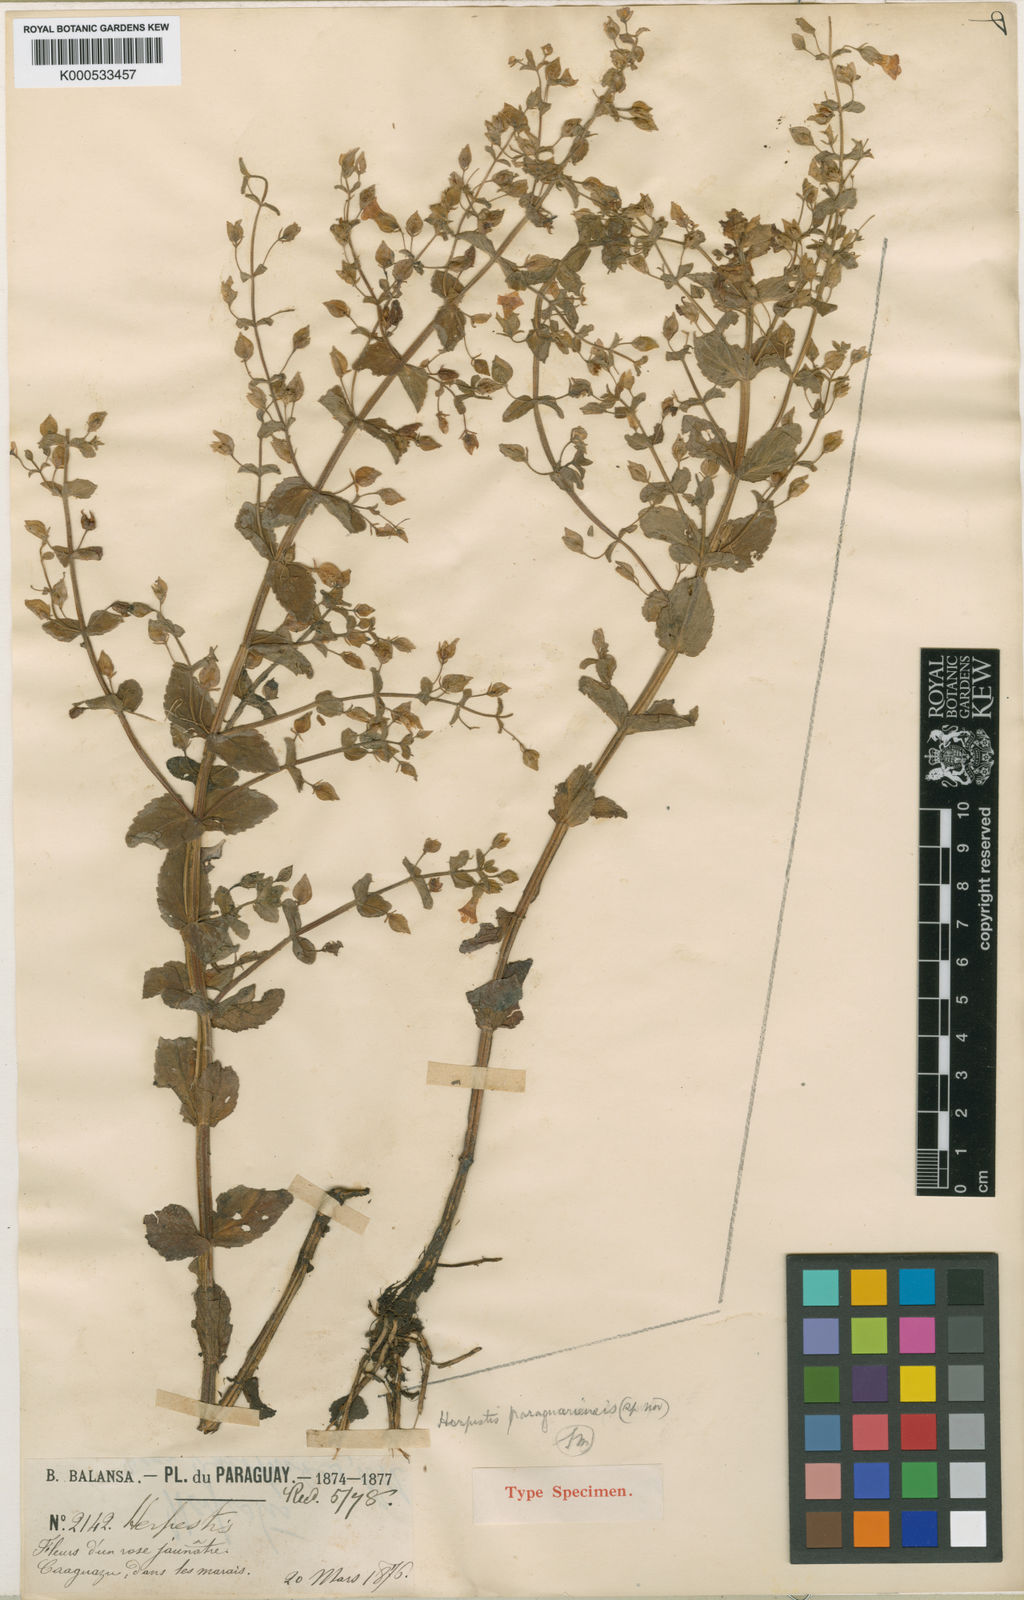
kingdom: Plantae
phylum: Tracheophyta
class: Magnoliopsida
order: Lamiales
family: Plantaginaceae
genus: Bacopa
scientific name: Bacopa paraguariensis
